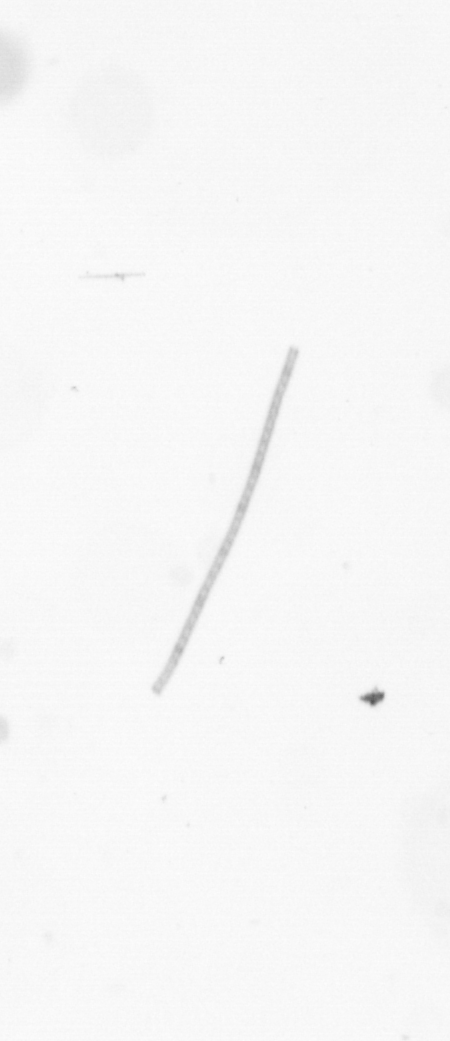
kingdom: Chromista
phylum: Ochrophyta
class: Bacillariophyceae
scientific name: Bacillariophyceae
